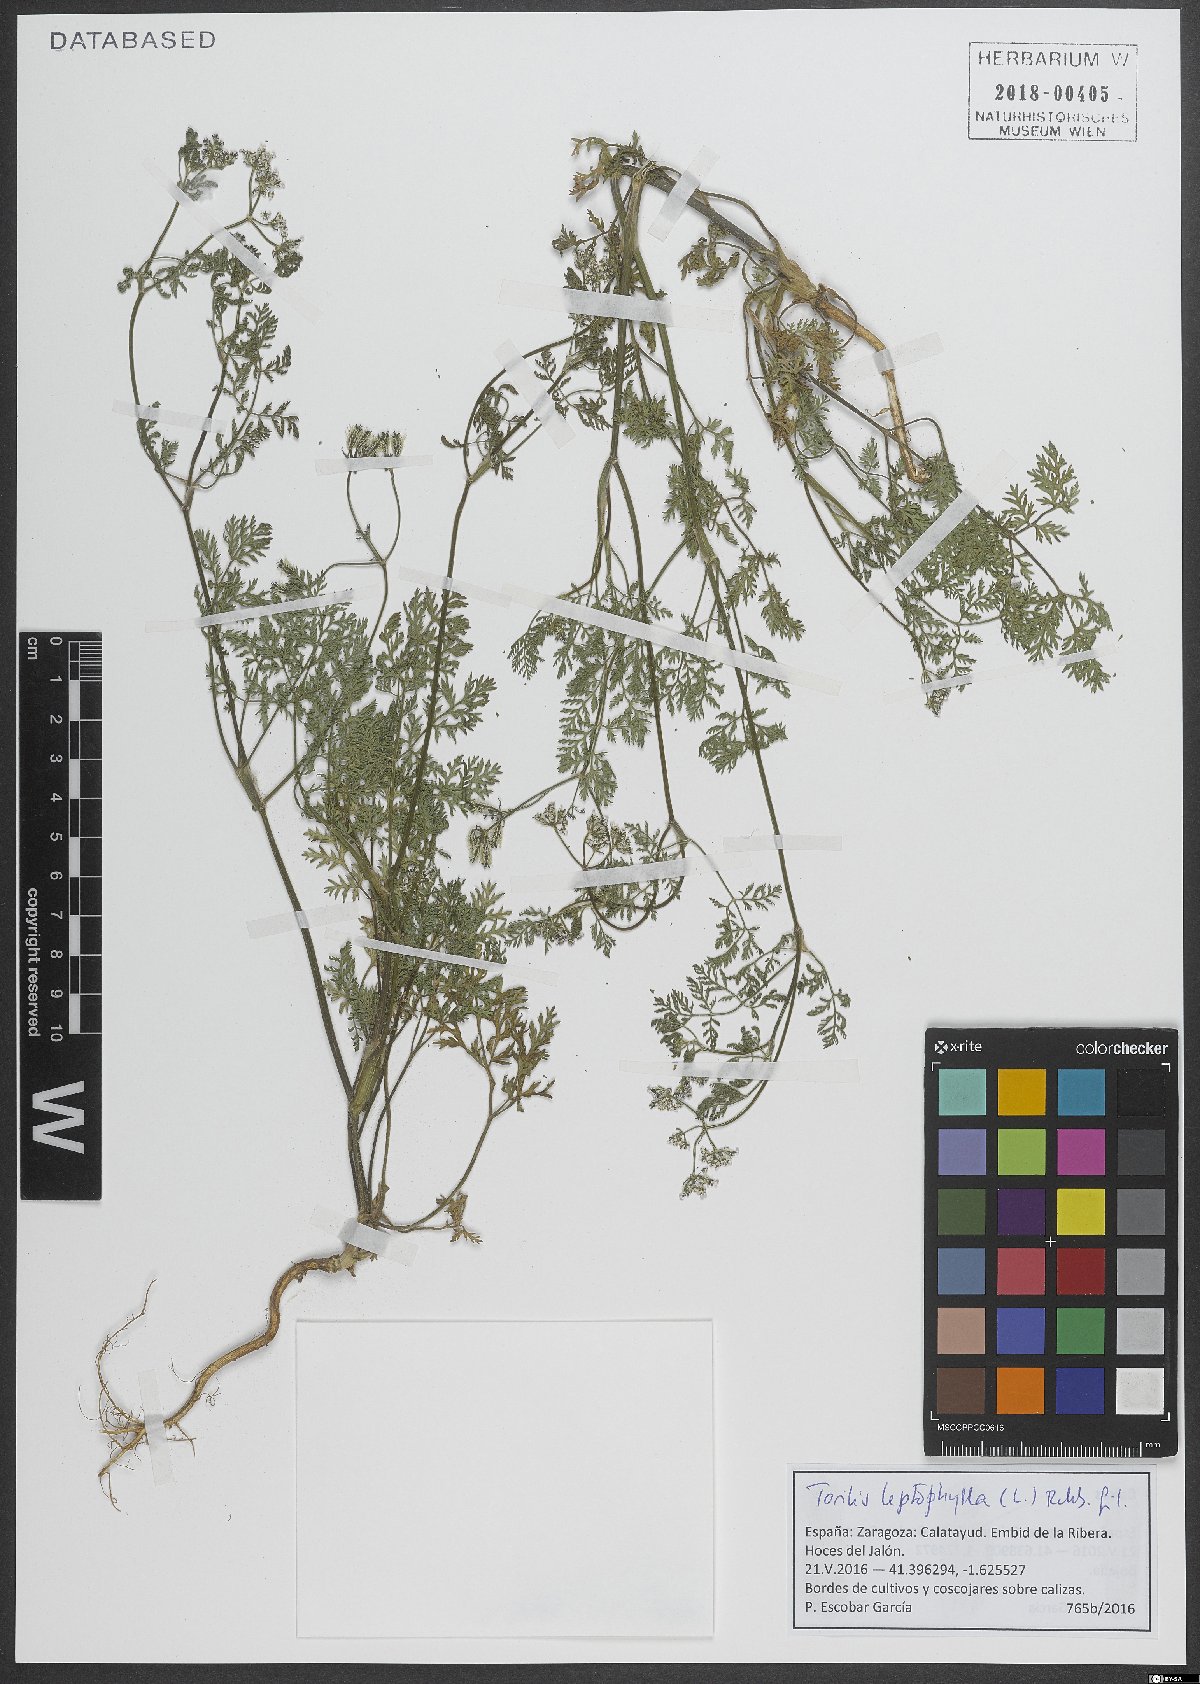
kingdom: Plantae
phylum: Tracheophyta
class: Magnoliopsida
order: Apiales
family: Apiaceae
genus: Torilis
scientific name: Torilis leptophylla
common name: Bristlefruit hedgeparsley
